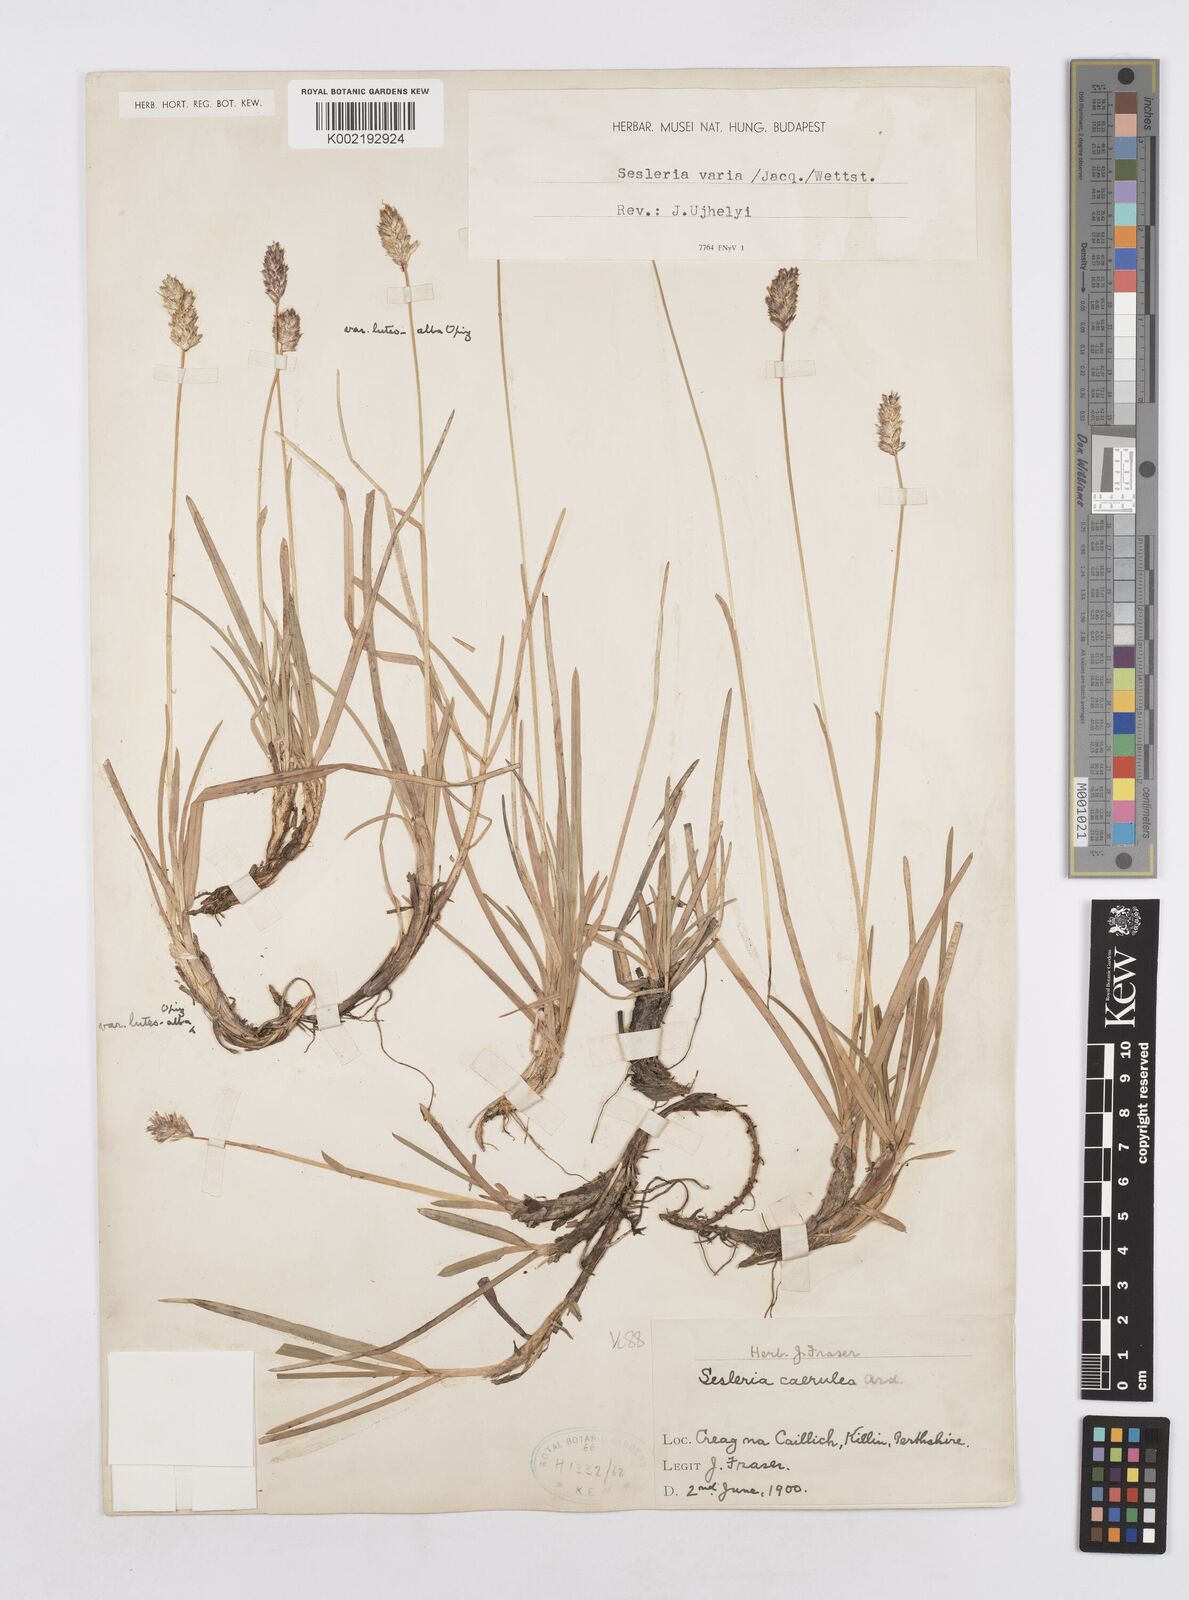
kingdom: Plantae
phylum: Tracheophyta
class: Liliopsida
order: Poales
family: Poaceae
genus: Sesleria
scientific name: Sesleria caerulea
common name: Blue moor-grass
